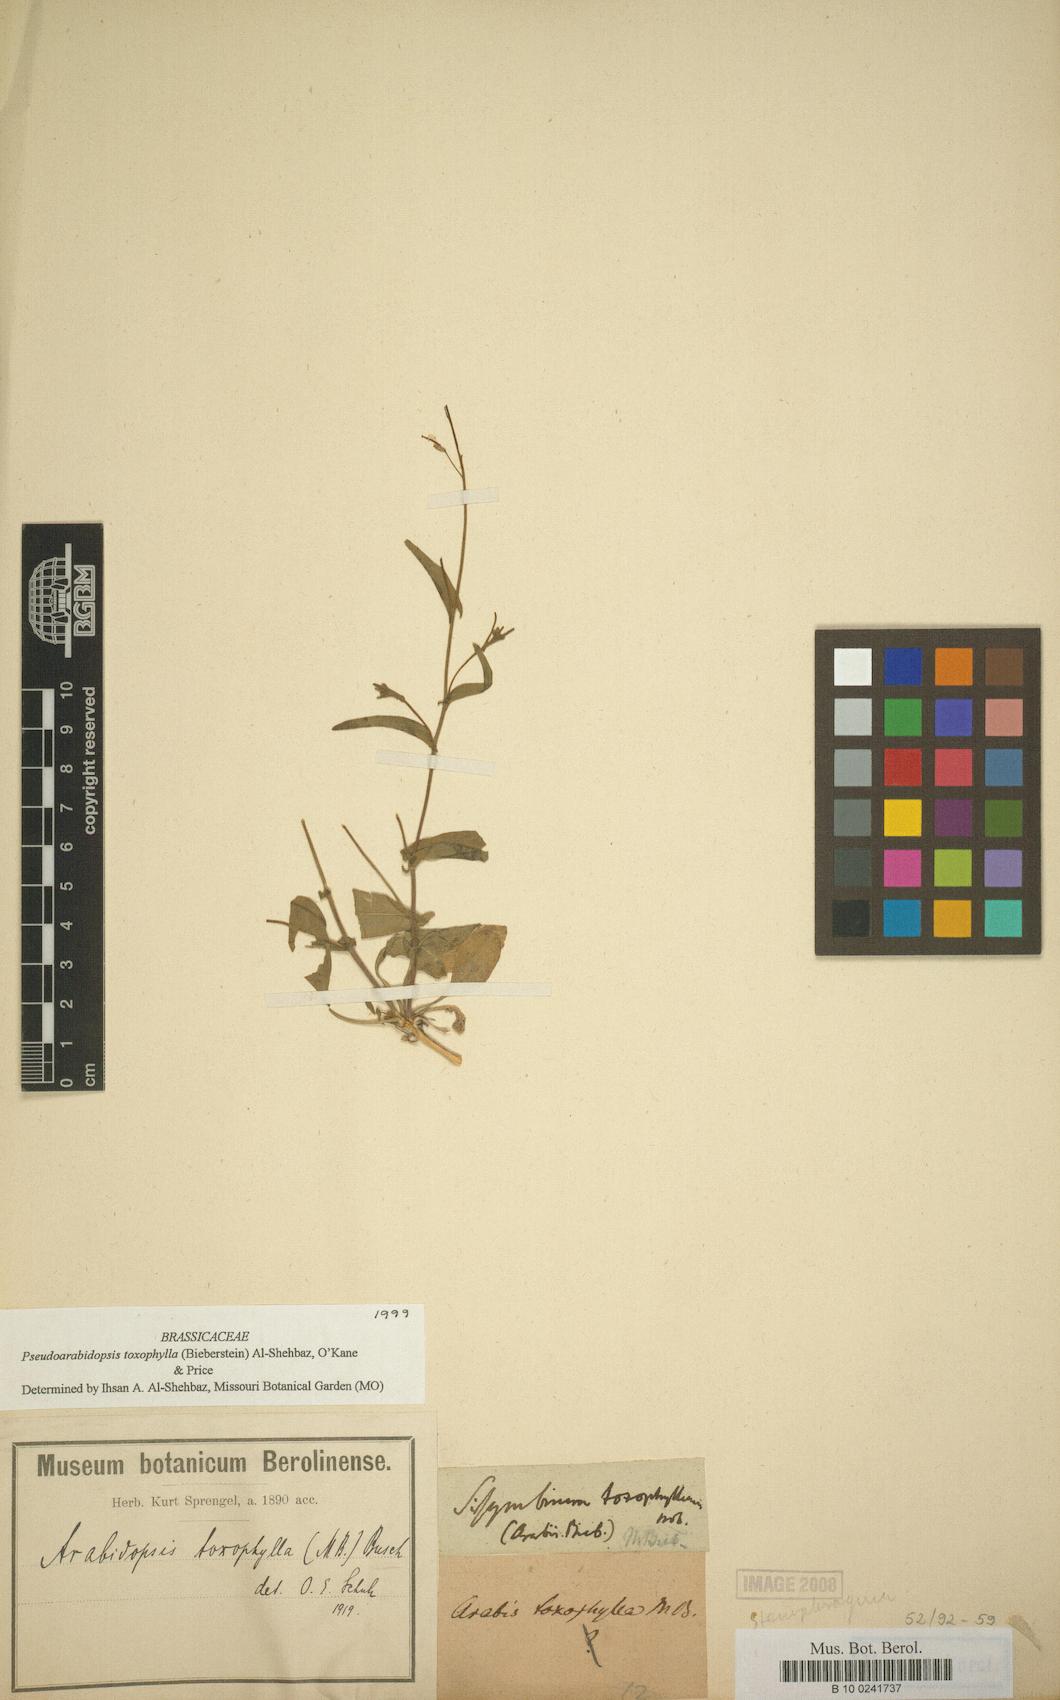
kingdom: Plantae
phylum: Tracheophyta
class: Magnoliopsida
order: Brassicales
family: Brassicaceae
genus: Pseudocamelina
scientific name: Pseudocamelina
